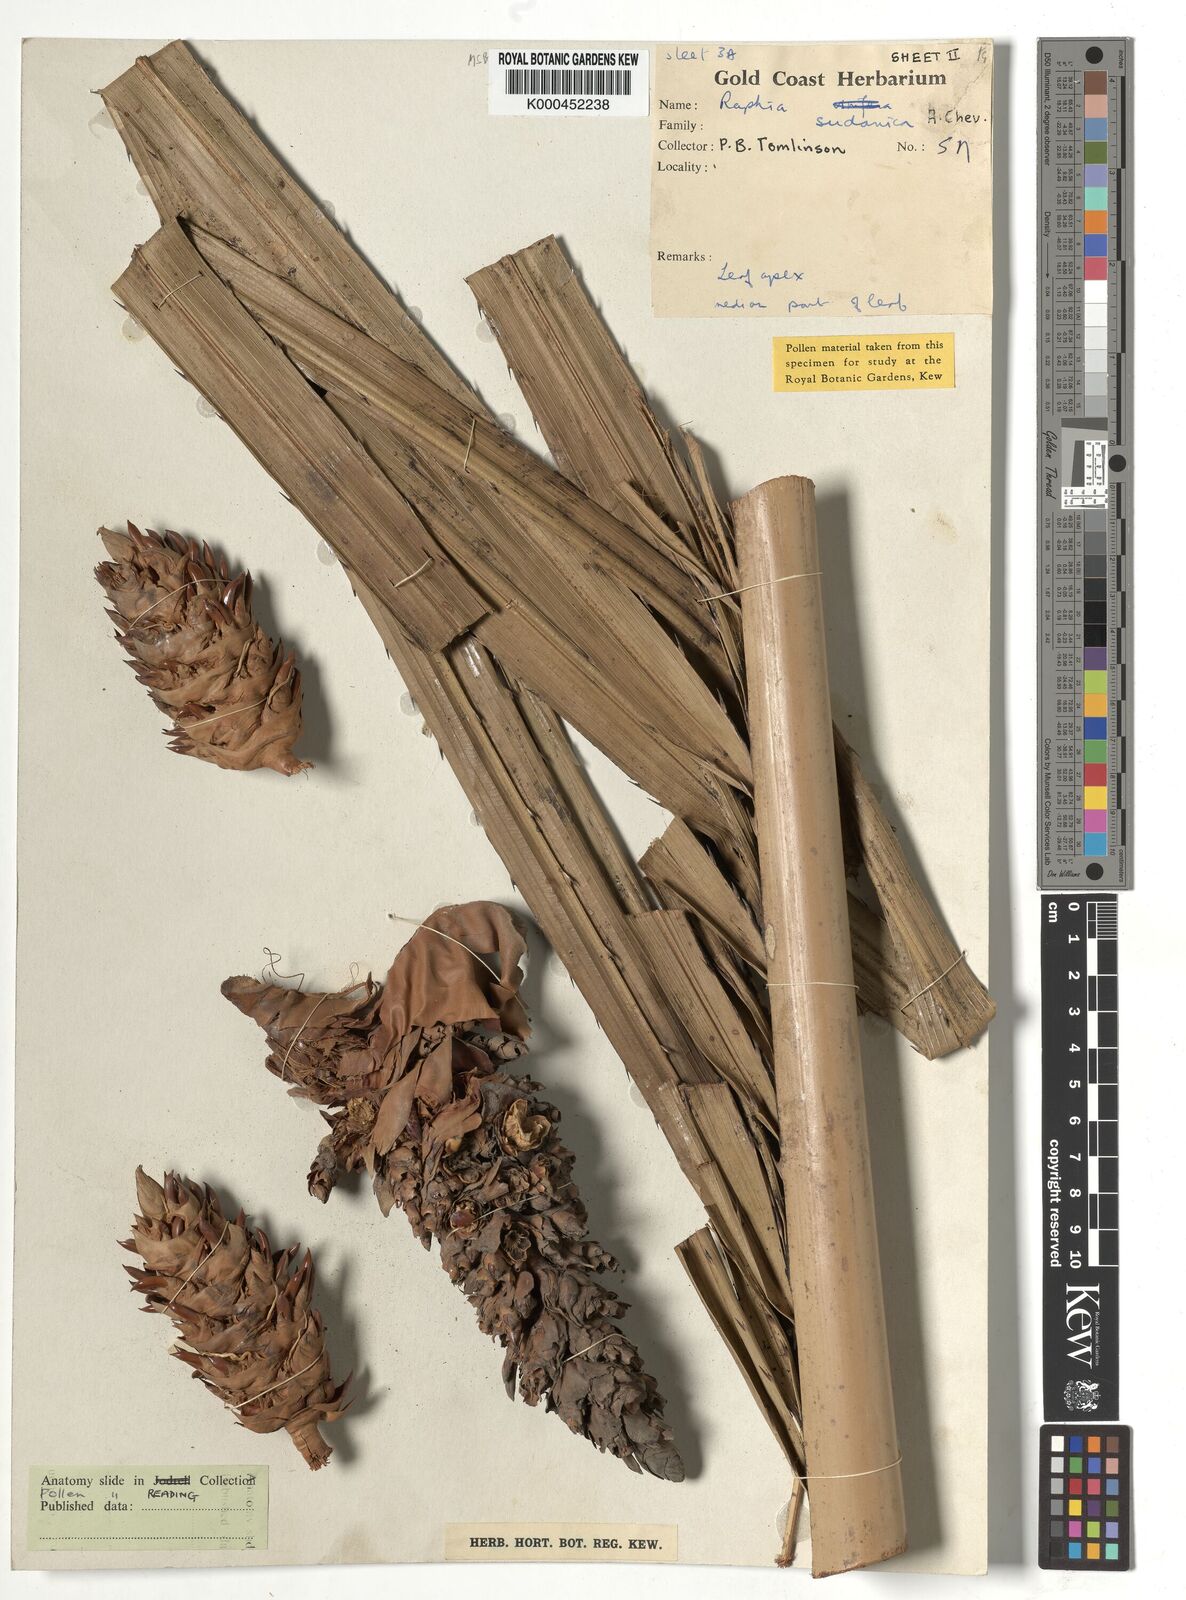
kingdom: Plantae
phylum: Tracheophyta
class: Liliopsida
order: Arecales
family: Arecaceae
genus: Raphia
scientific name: Raphia sudanica
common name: Northern raphia
